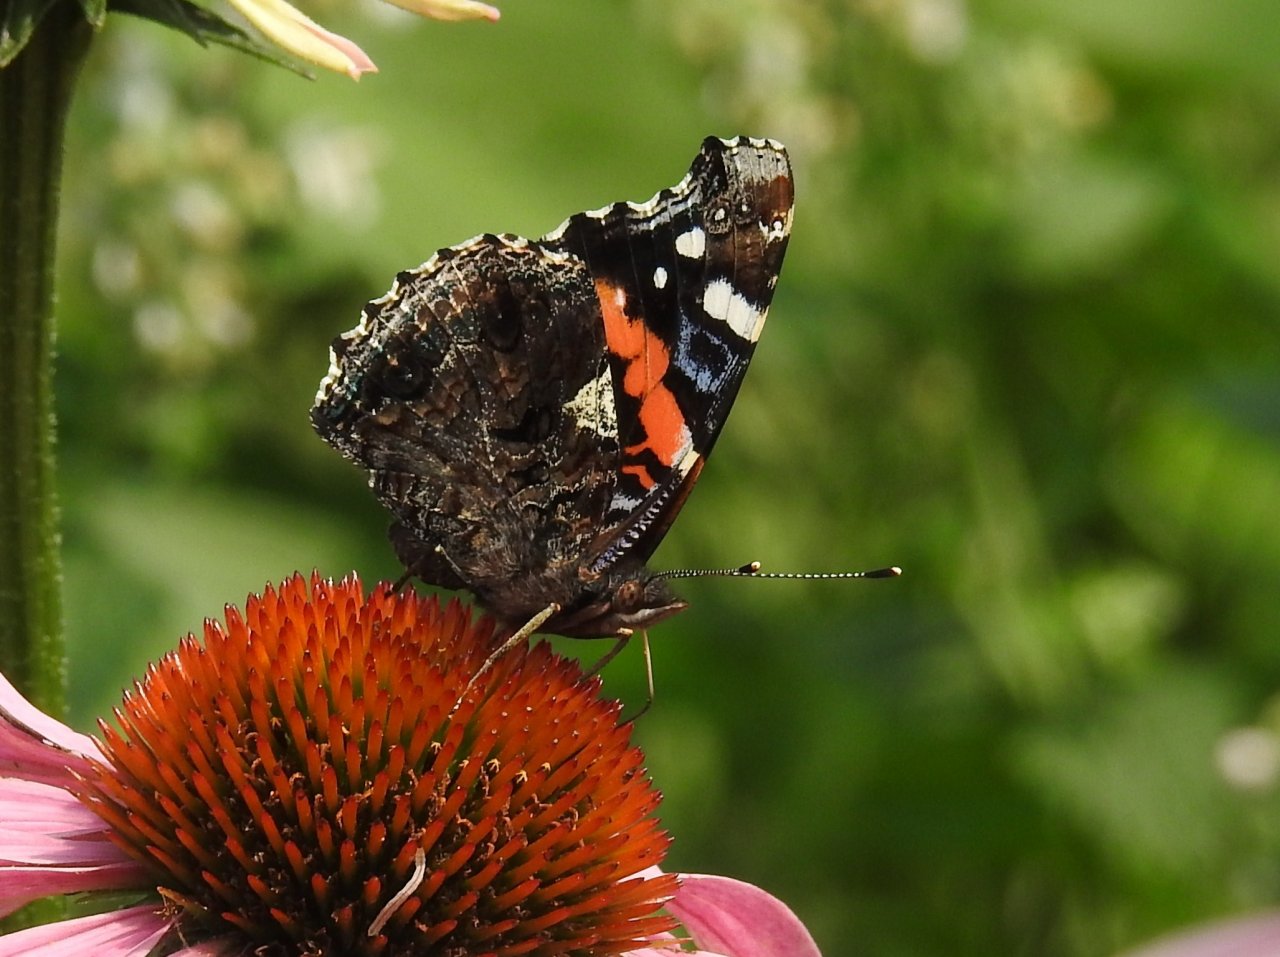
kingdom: Animalia
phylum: Arthropoda
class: Insecta
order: Lepidoptera
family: Nymphalidae
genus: Vanessa
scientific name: Vanessa atalanta
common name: Red Admiral
